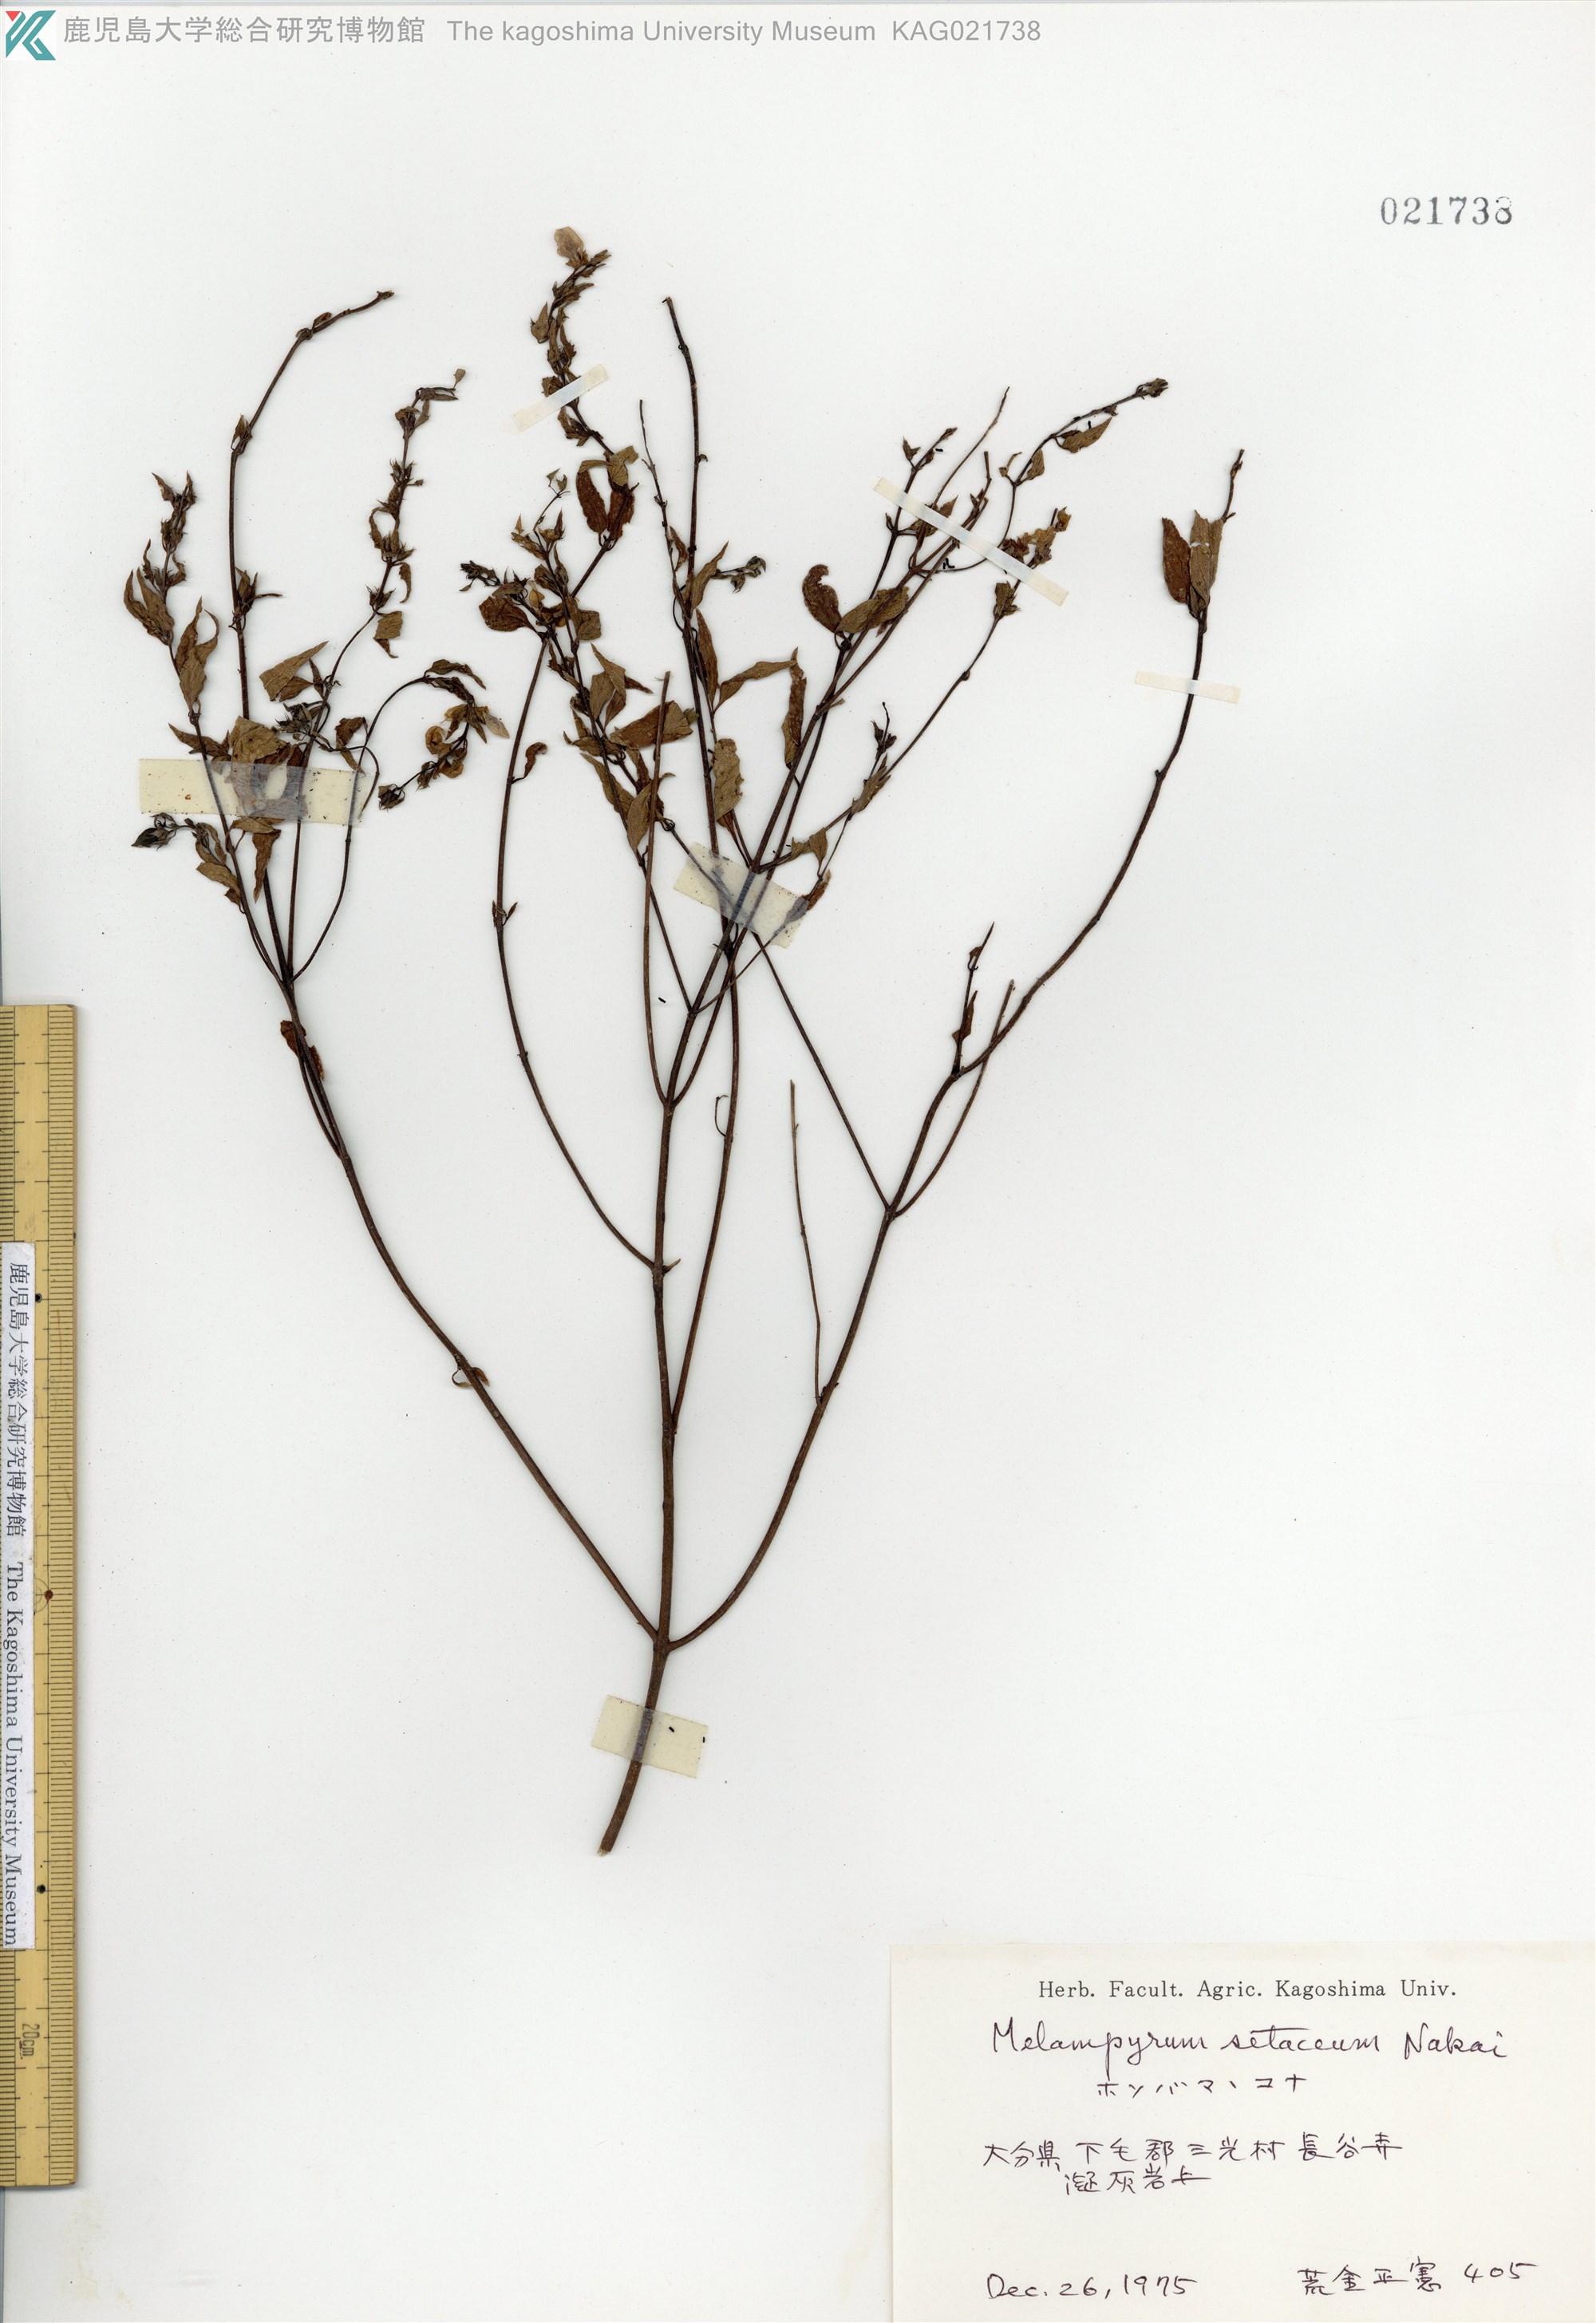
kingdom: Plantae
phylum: Tracheophyta
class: Magnoliopsida
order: Lamiales
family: Orobanchaceae
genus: Melampyrum
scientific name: Melampyrum roseum
